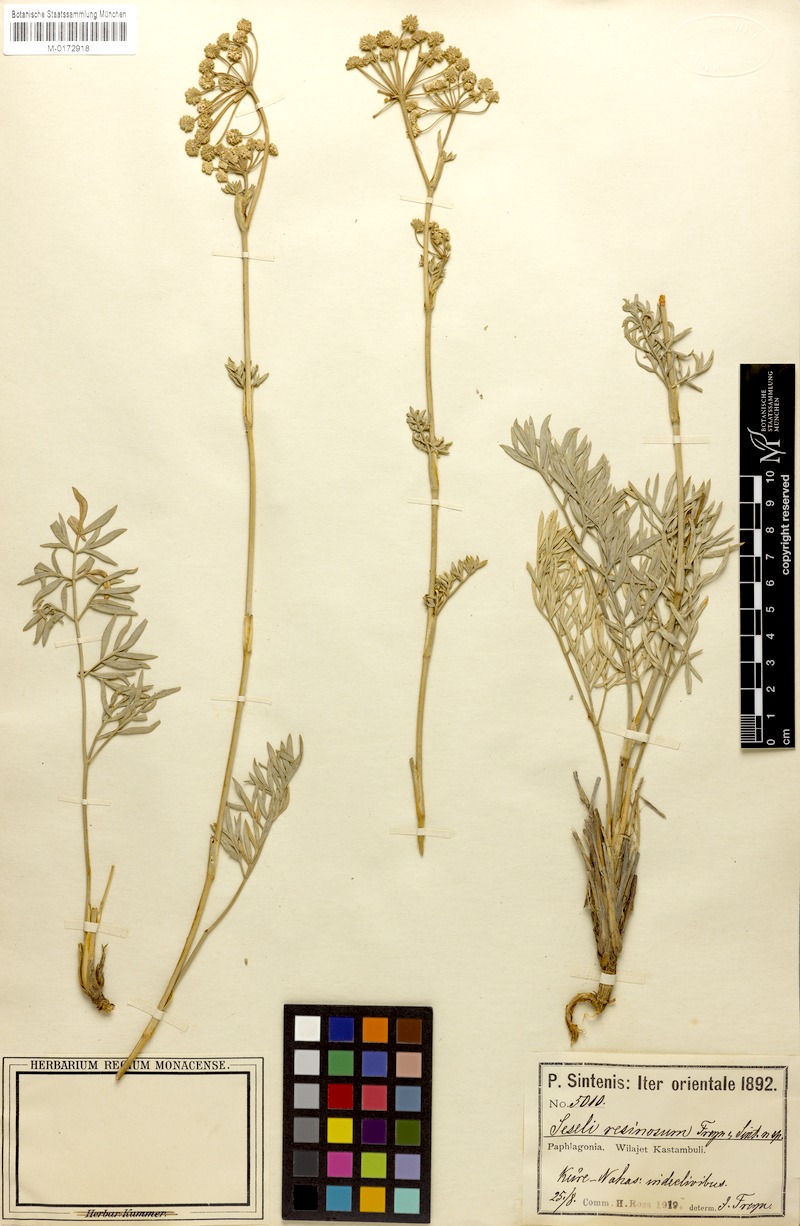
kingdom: Plantae
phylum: Tracheophyta
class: Magnoliopsida
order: Apiales
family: Apiaceae
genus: Seseli
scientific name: Seseli resinosum
